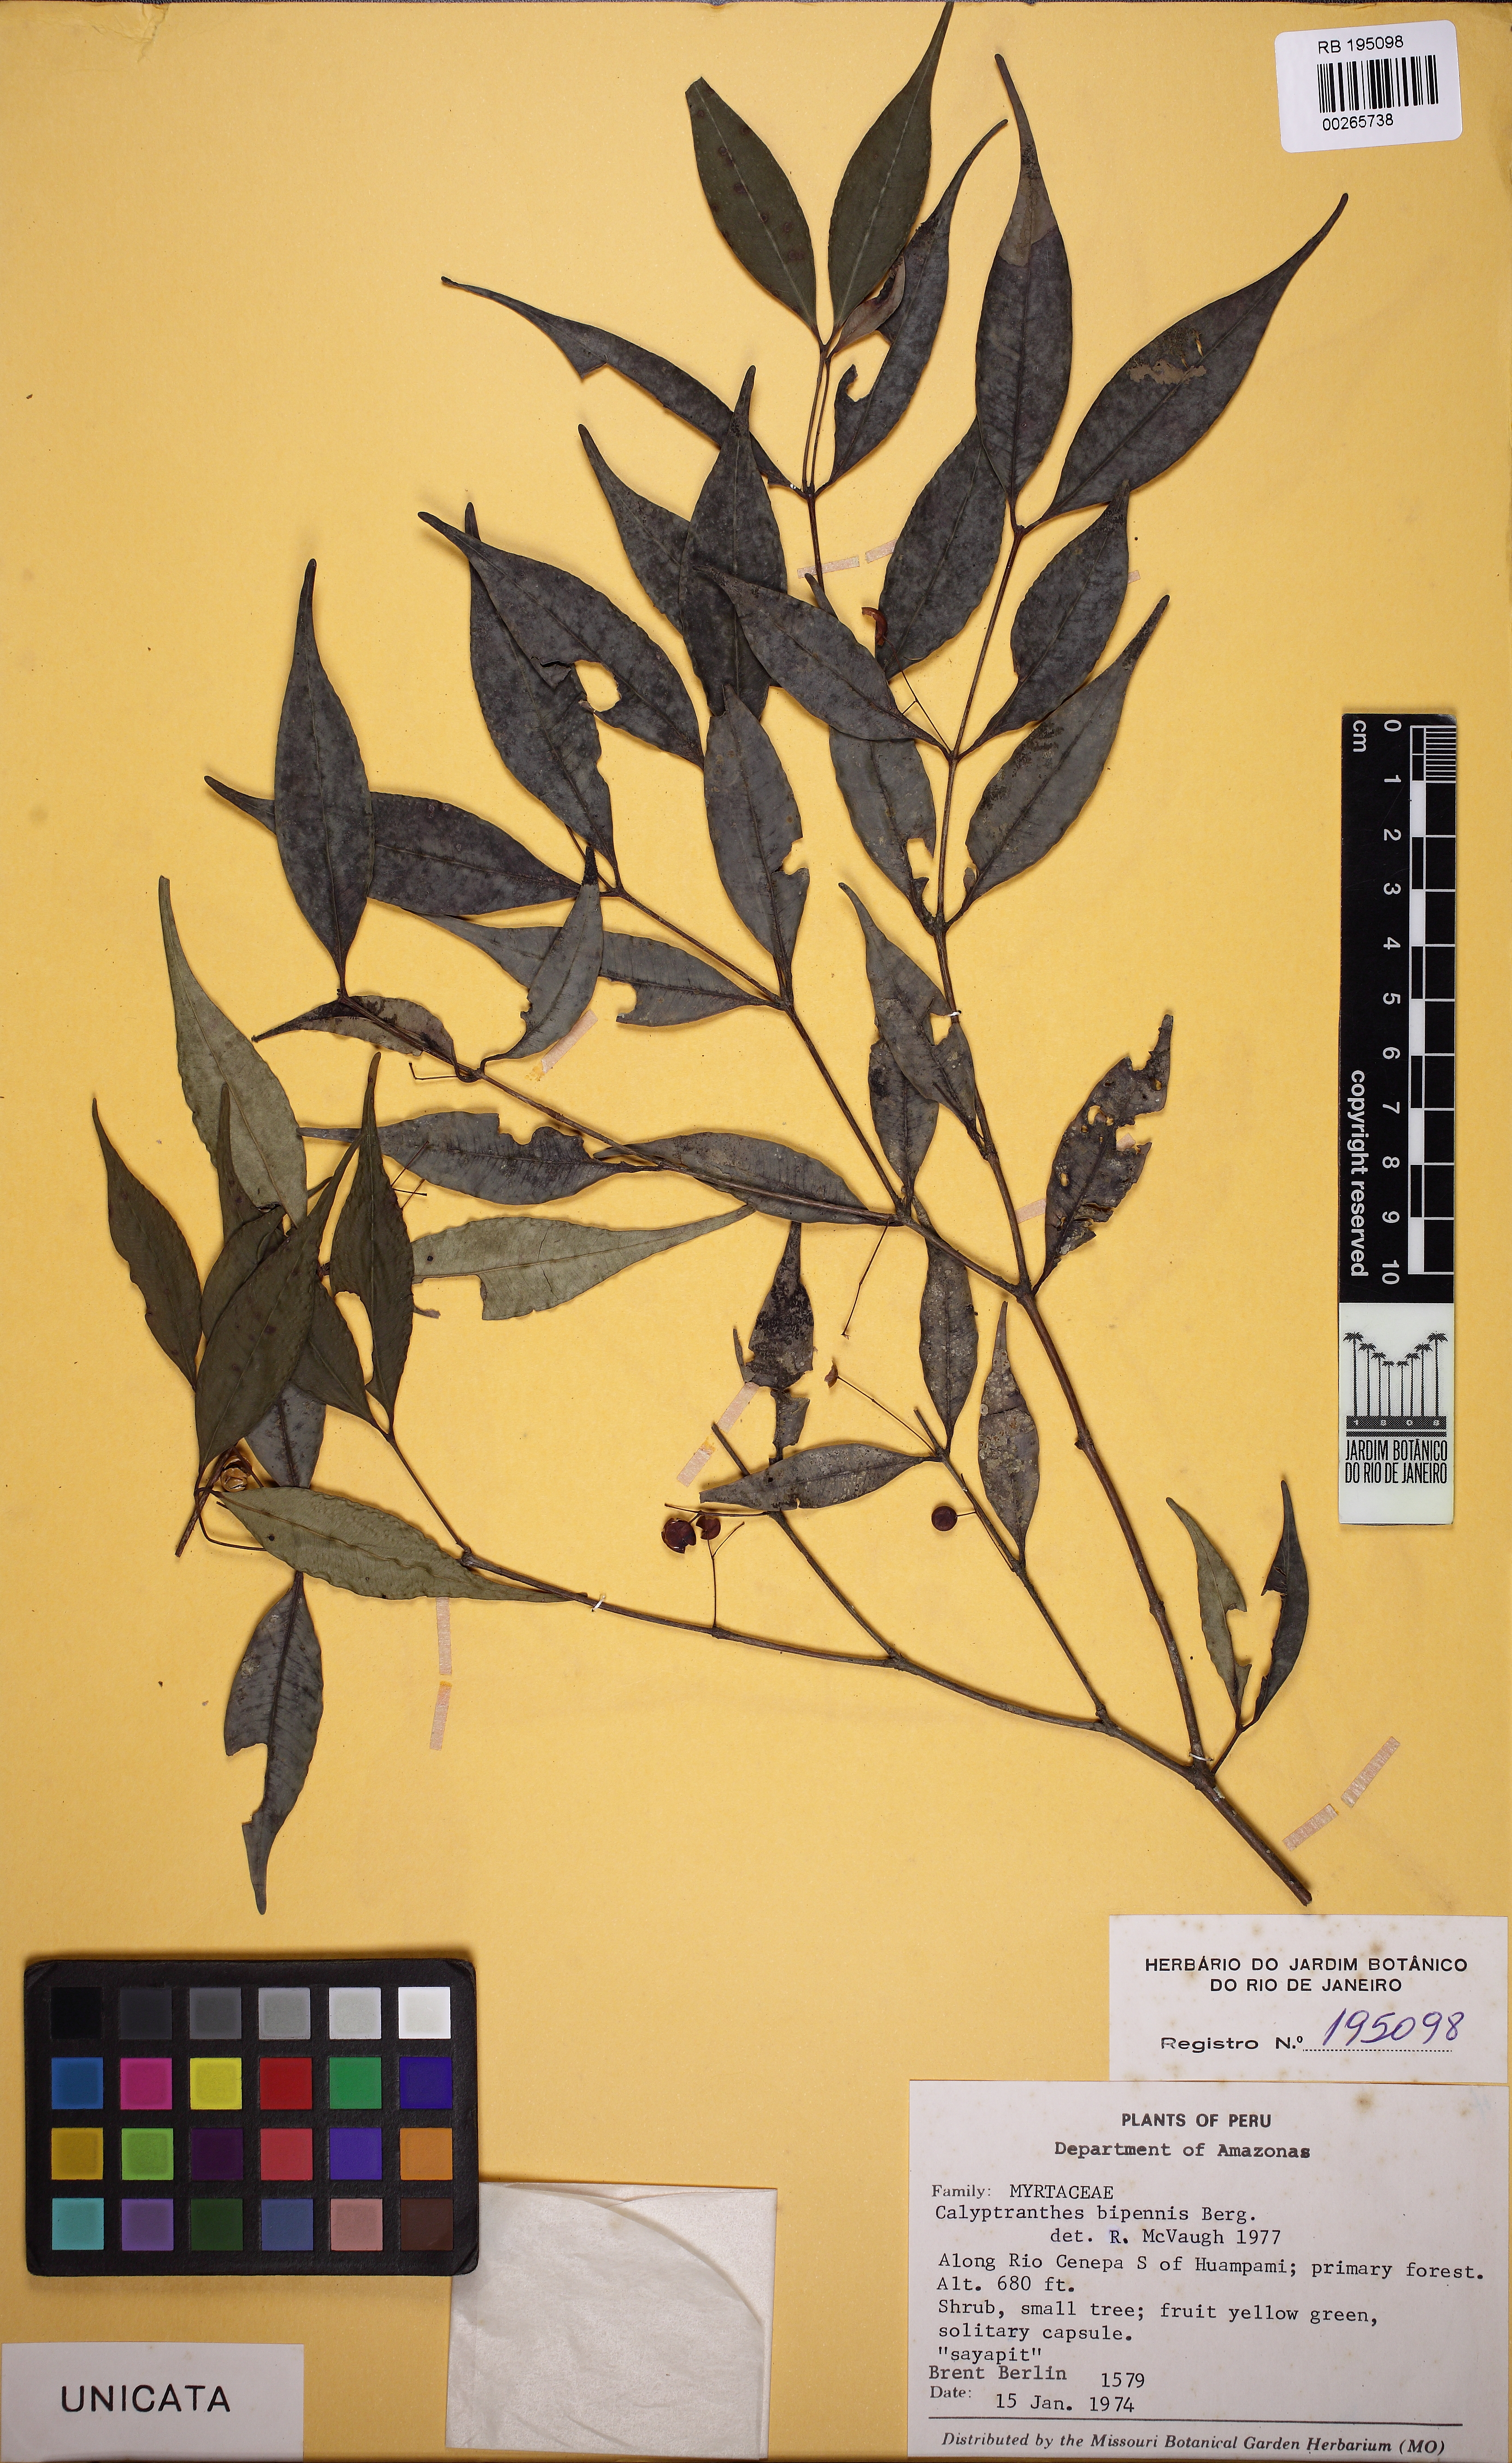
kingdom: Plantae
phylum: Tracheophyta
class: Magnoliopsida
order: Myrtales
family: Myrtaceae
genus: Myrcia
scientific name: Myrcia tenuiflora
